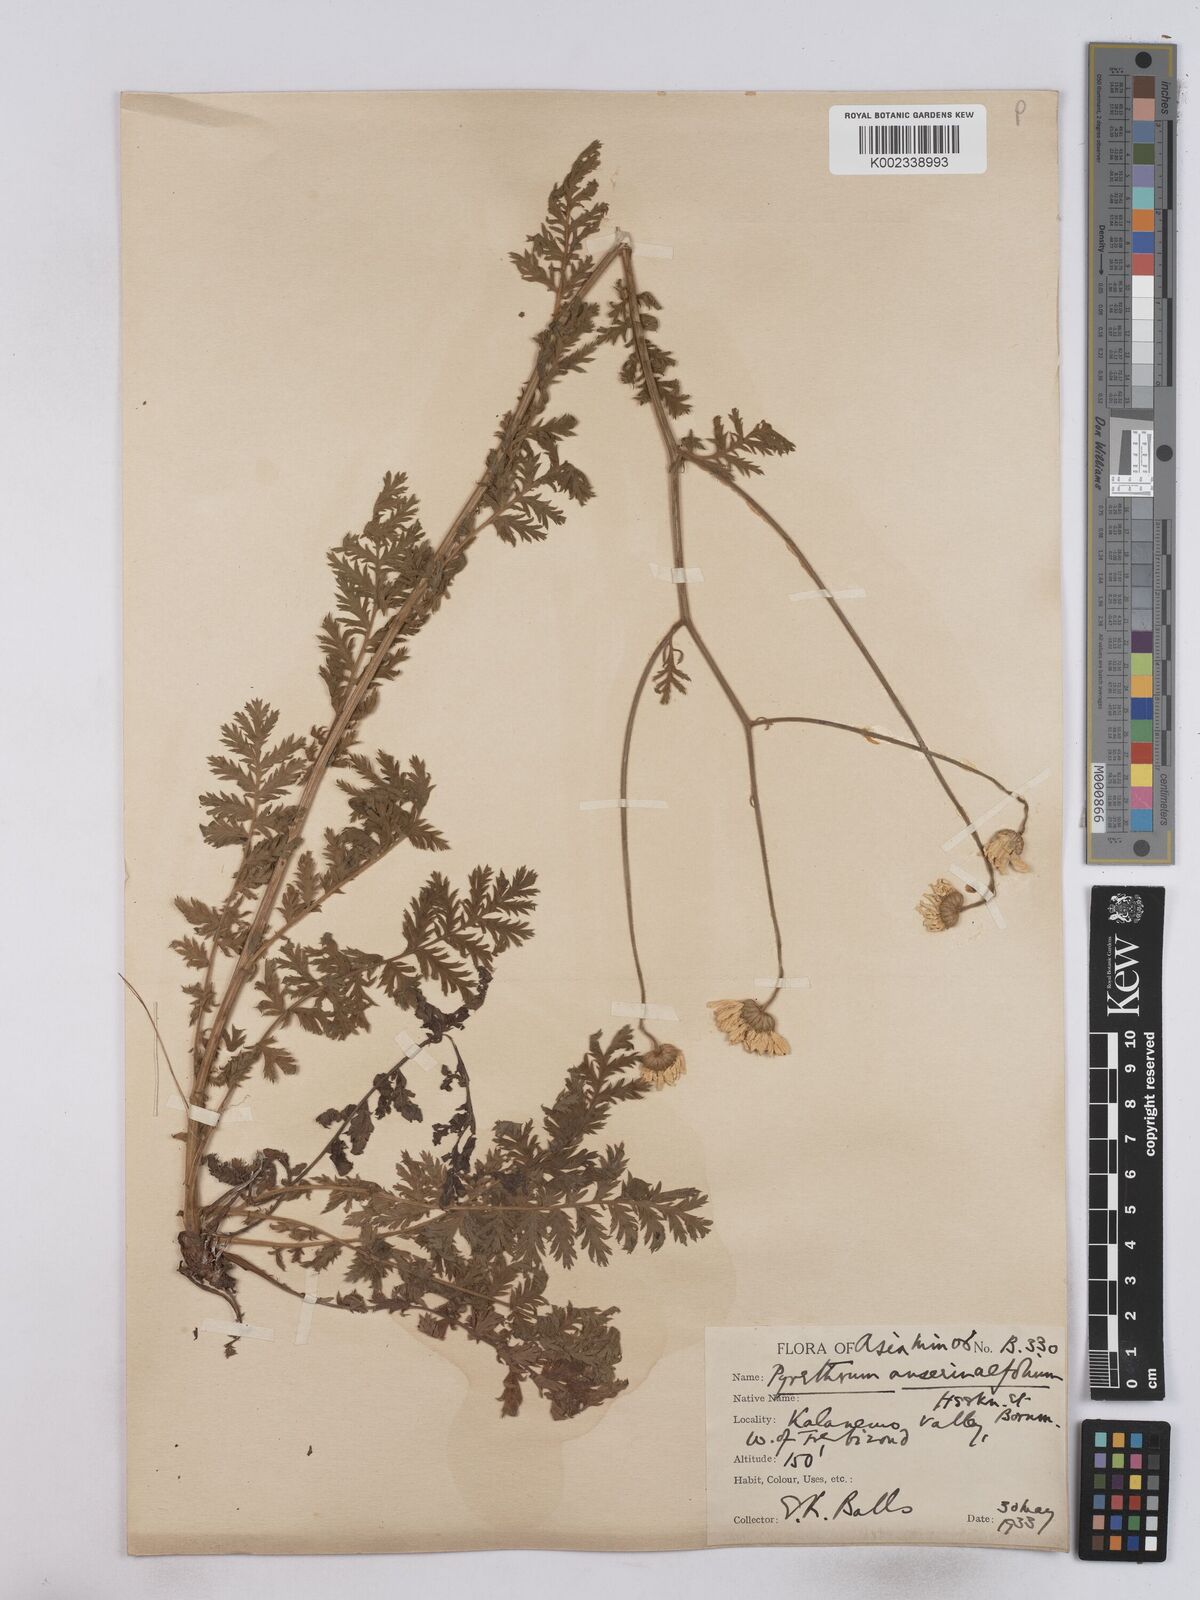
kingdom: Plantae
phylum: Tracheophyta
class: Magnoliopsida
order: Asterales
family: Asteraceae
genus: Tanacetum
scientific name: Tanacetum
